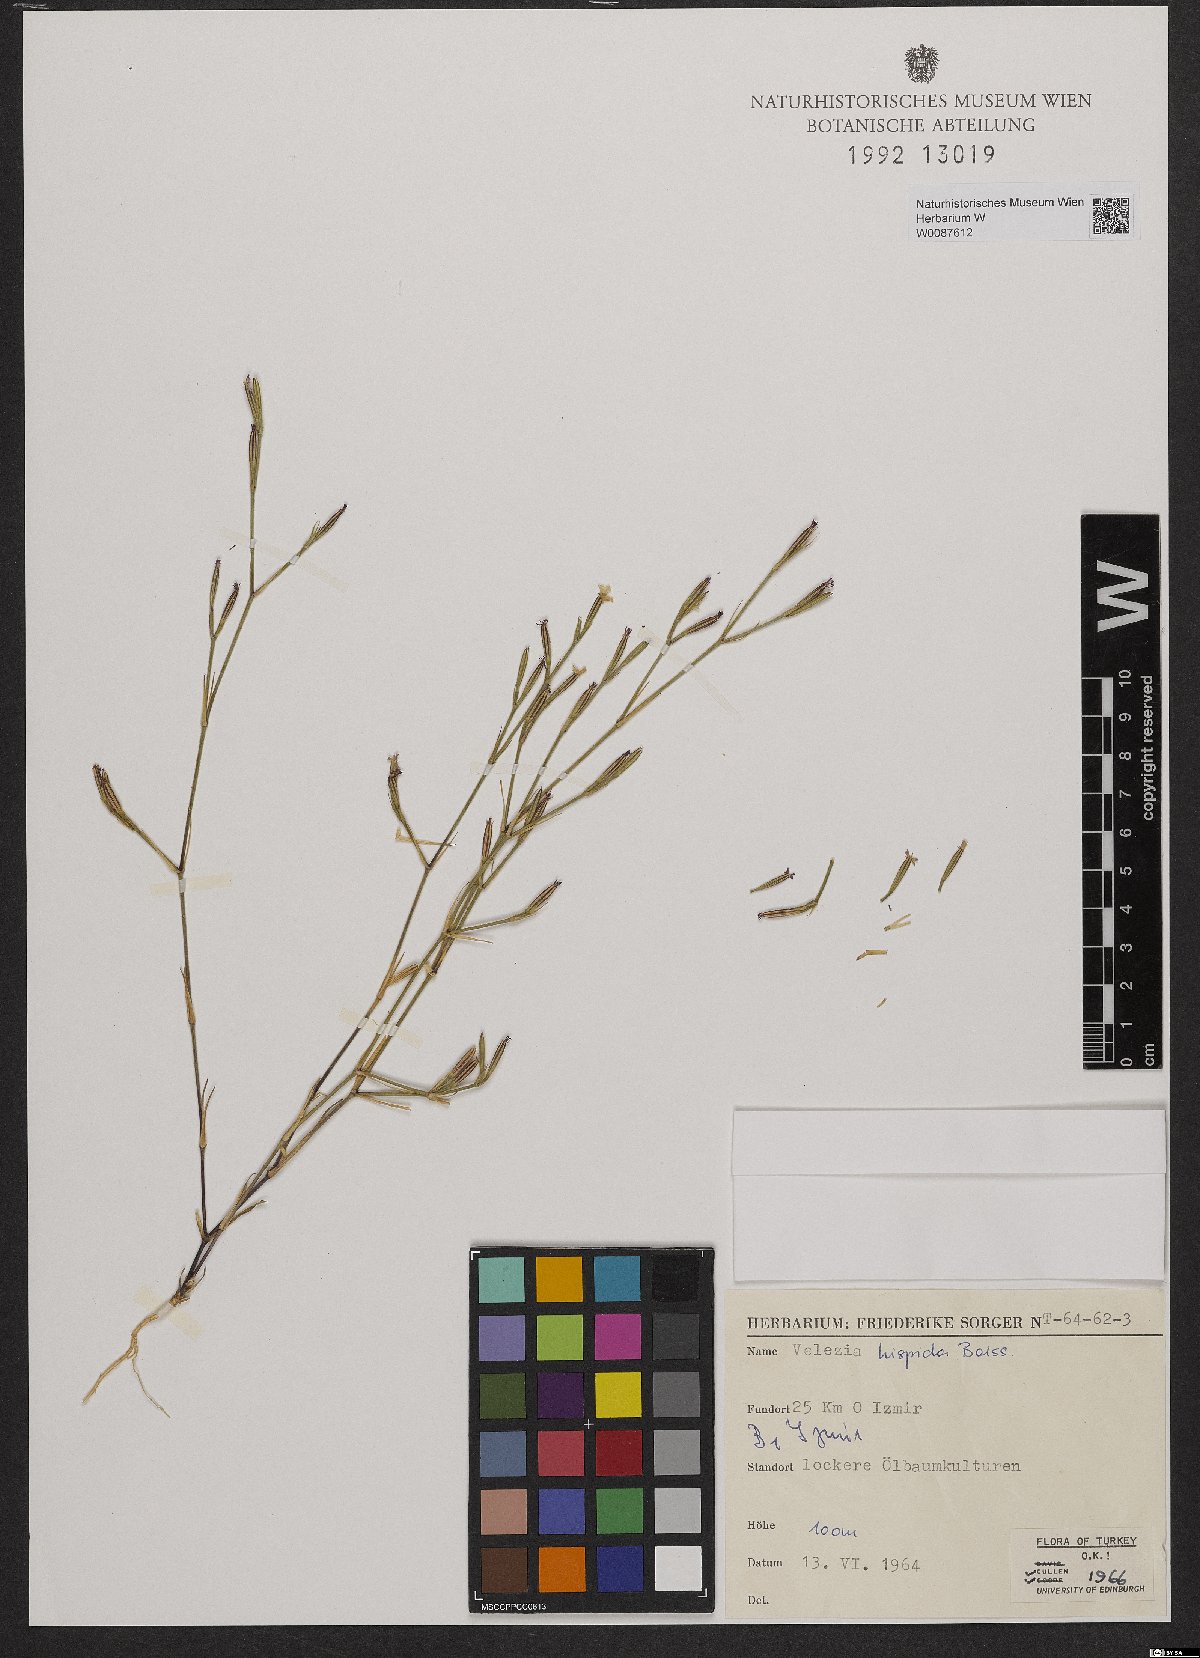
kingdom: Plantae
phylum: Tracheophyta
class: Magnoliopsida
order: Caryophyllales
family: Caryophyllaceae
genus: Dianthus
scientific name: Dianthus hispidus
